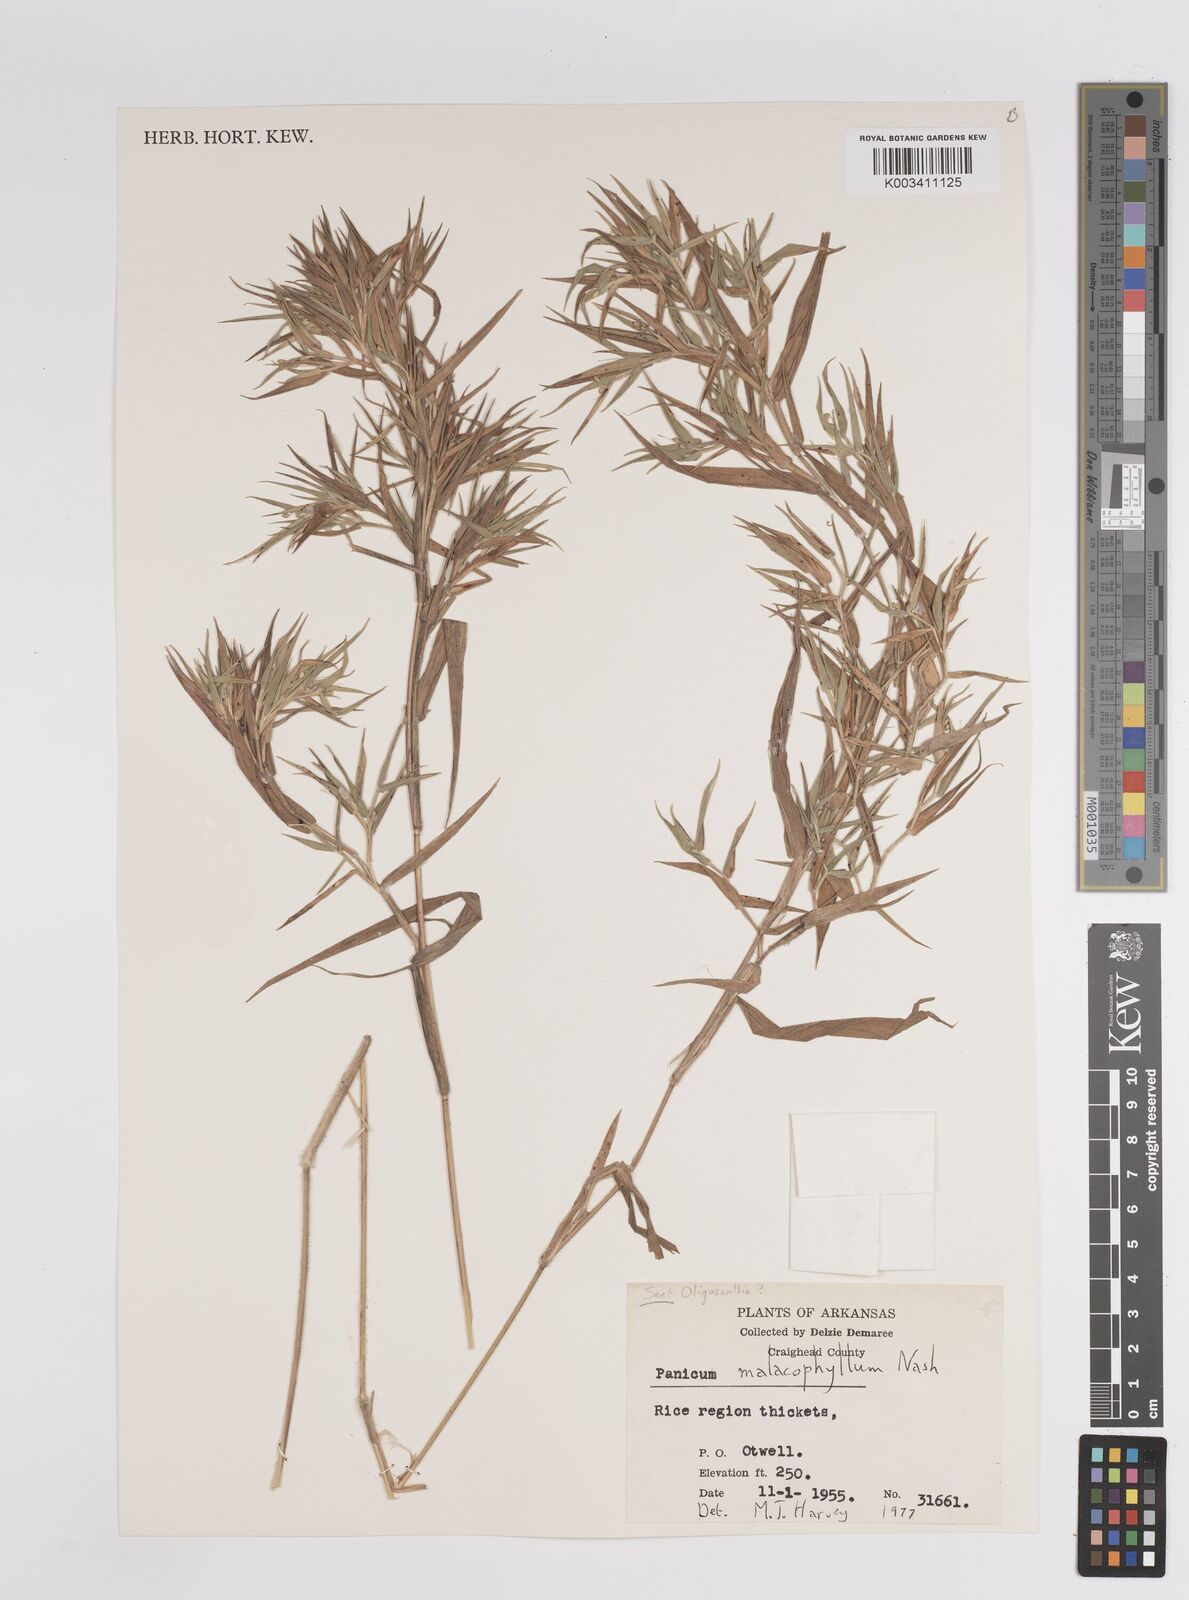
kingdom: Plantae
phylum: Tracheophyta
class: Liliopsida
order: Poales
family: Poaceae
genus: Dichanthelium
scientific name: Dichanthelium malacophyllum
